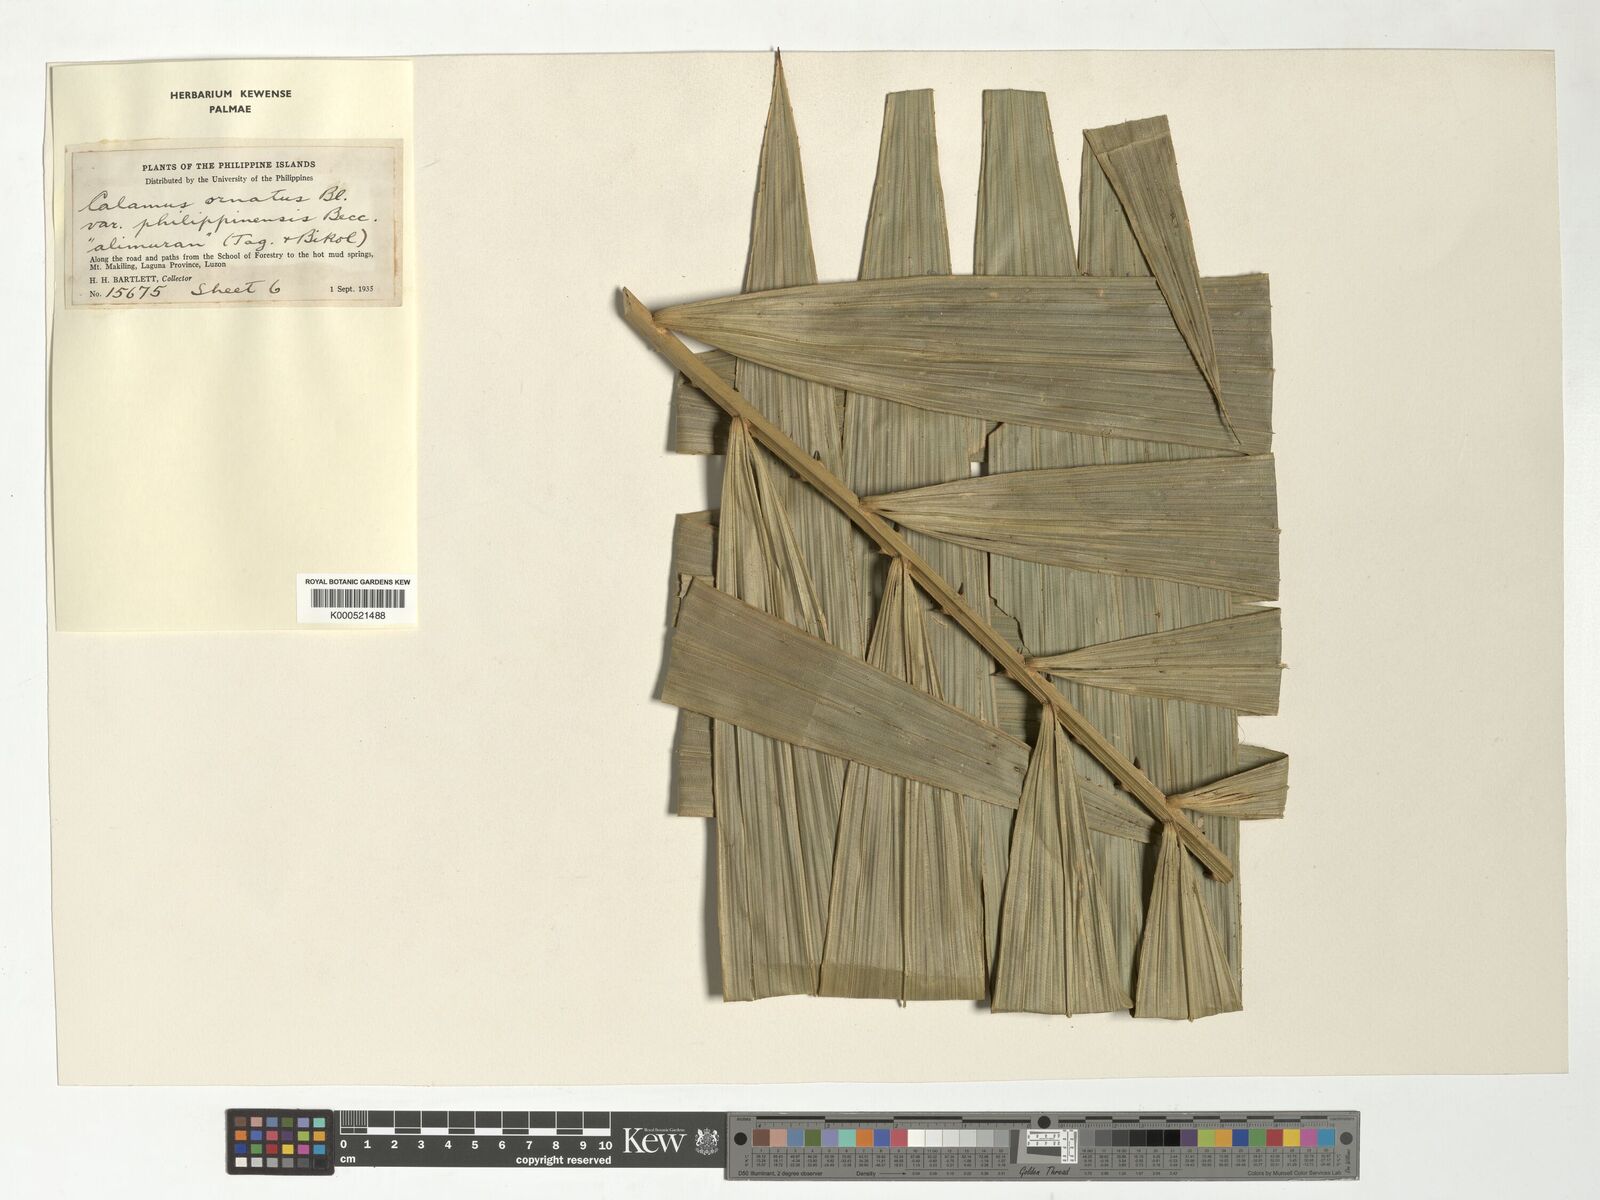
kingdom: Plantae
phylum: Tracheophyta
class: Liliopsida
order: Arecales
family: Arecaceae
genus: Calamus
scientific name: Calamus ornatus
